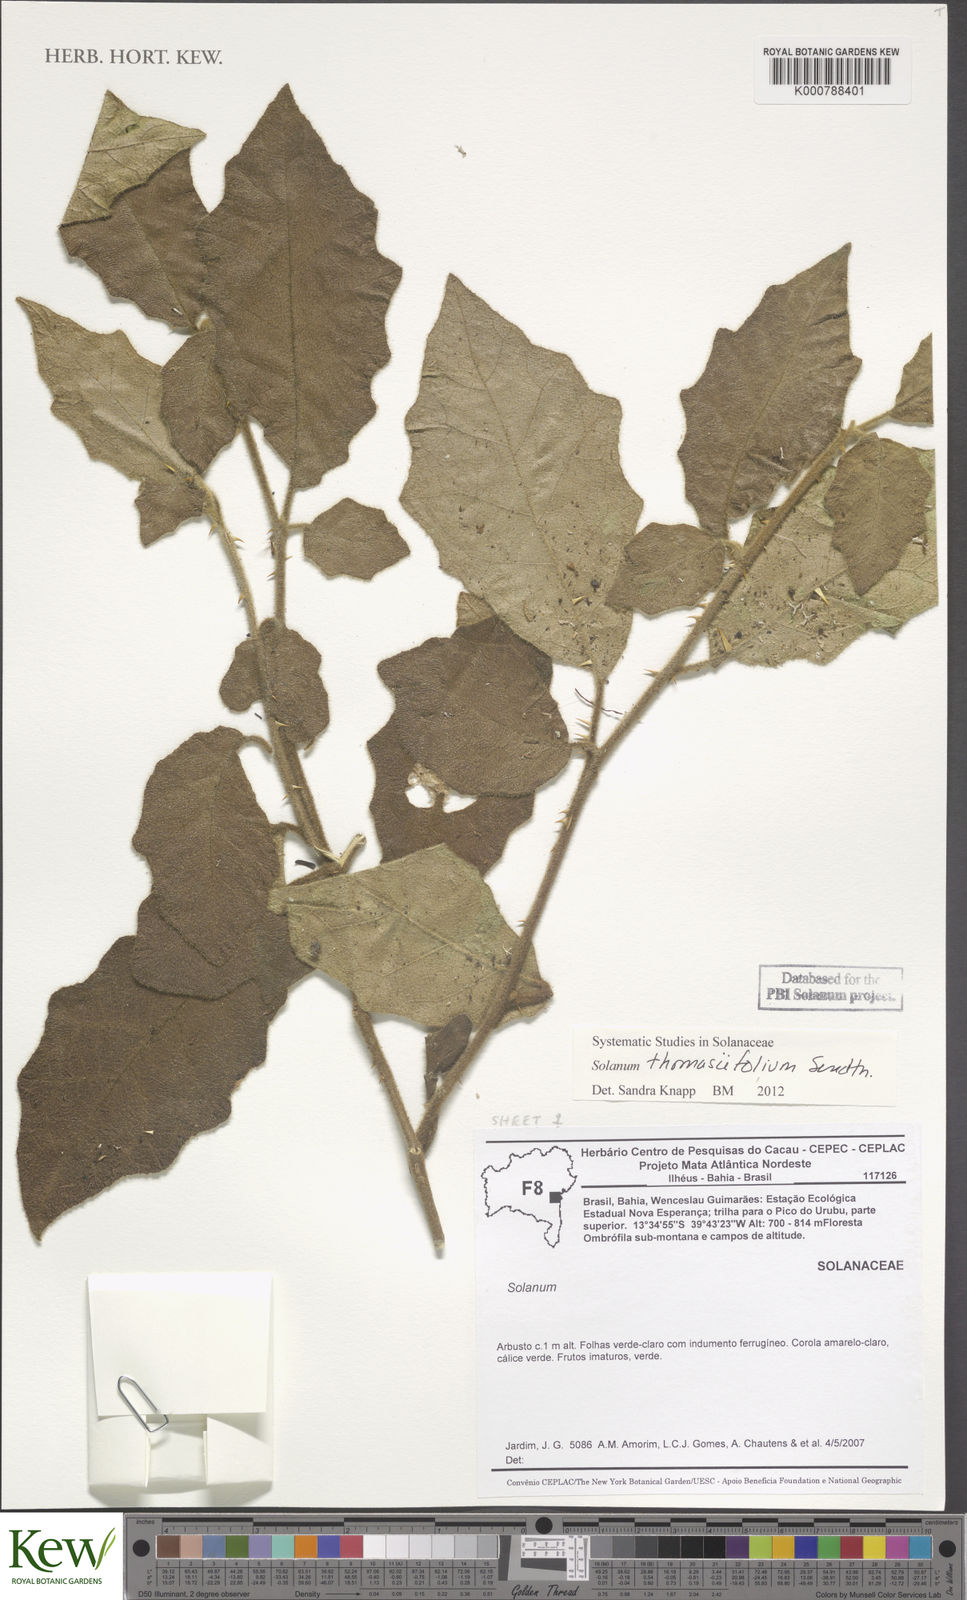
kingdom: Plantae
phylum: Tracheophyta
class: Magnoliopsida
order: Solanales
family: Solanaceae
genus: Solanum
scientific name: Solanum reflexiflorum
